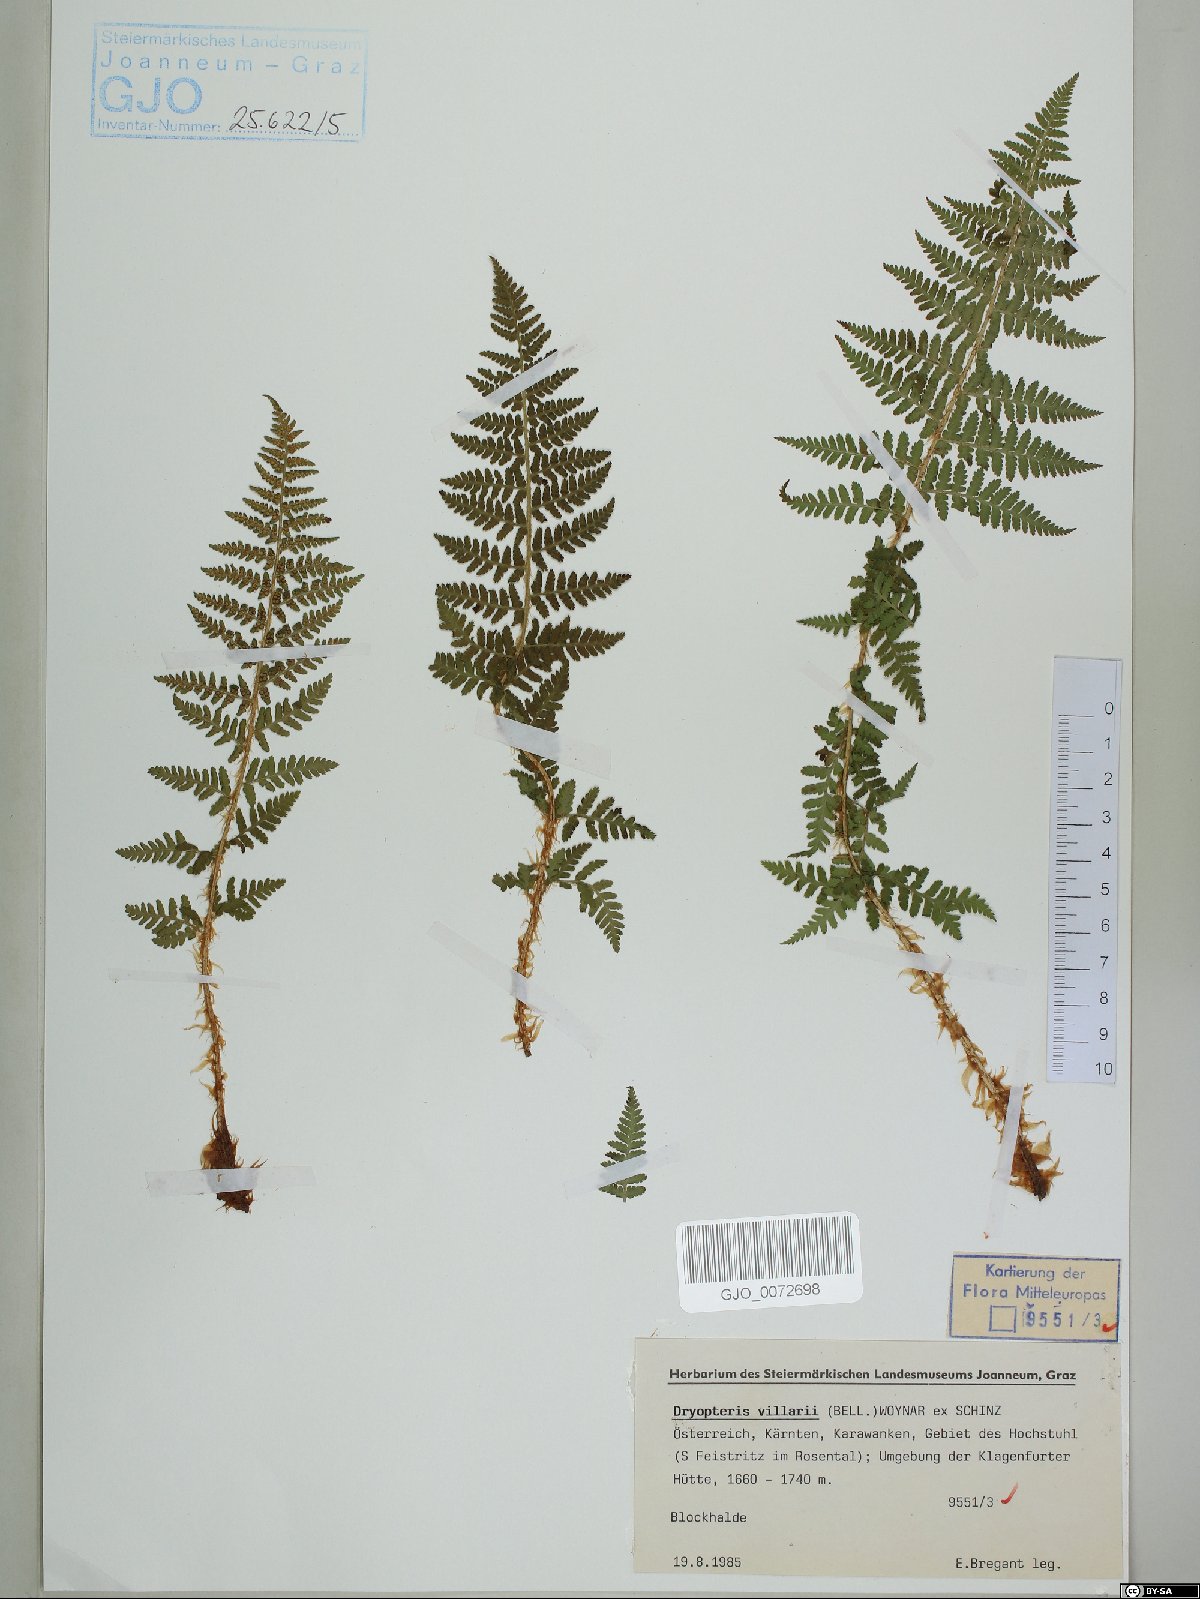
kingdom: Plantae
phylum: Tracheophyta
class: Polypodiopsida
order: Polypodiales
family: Dryopteridaceae
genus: Dryopteris
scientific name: Dryopteris villarii
